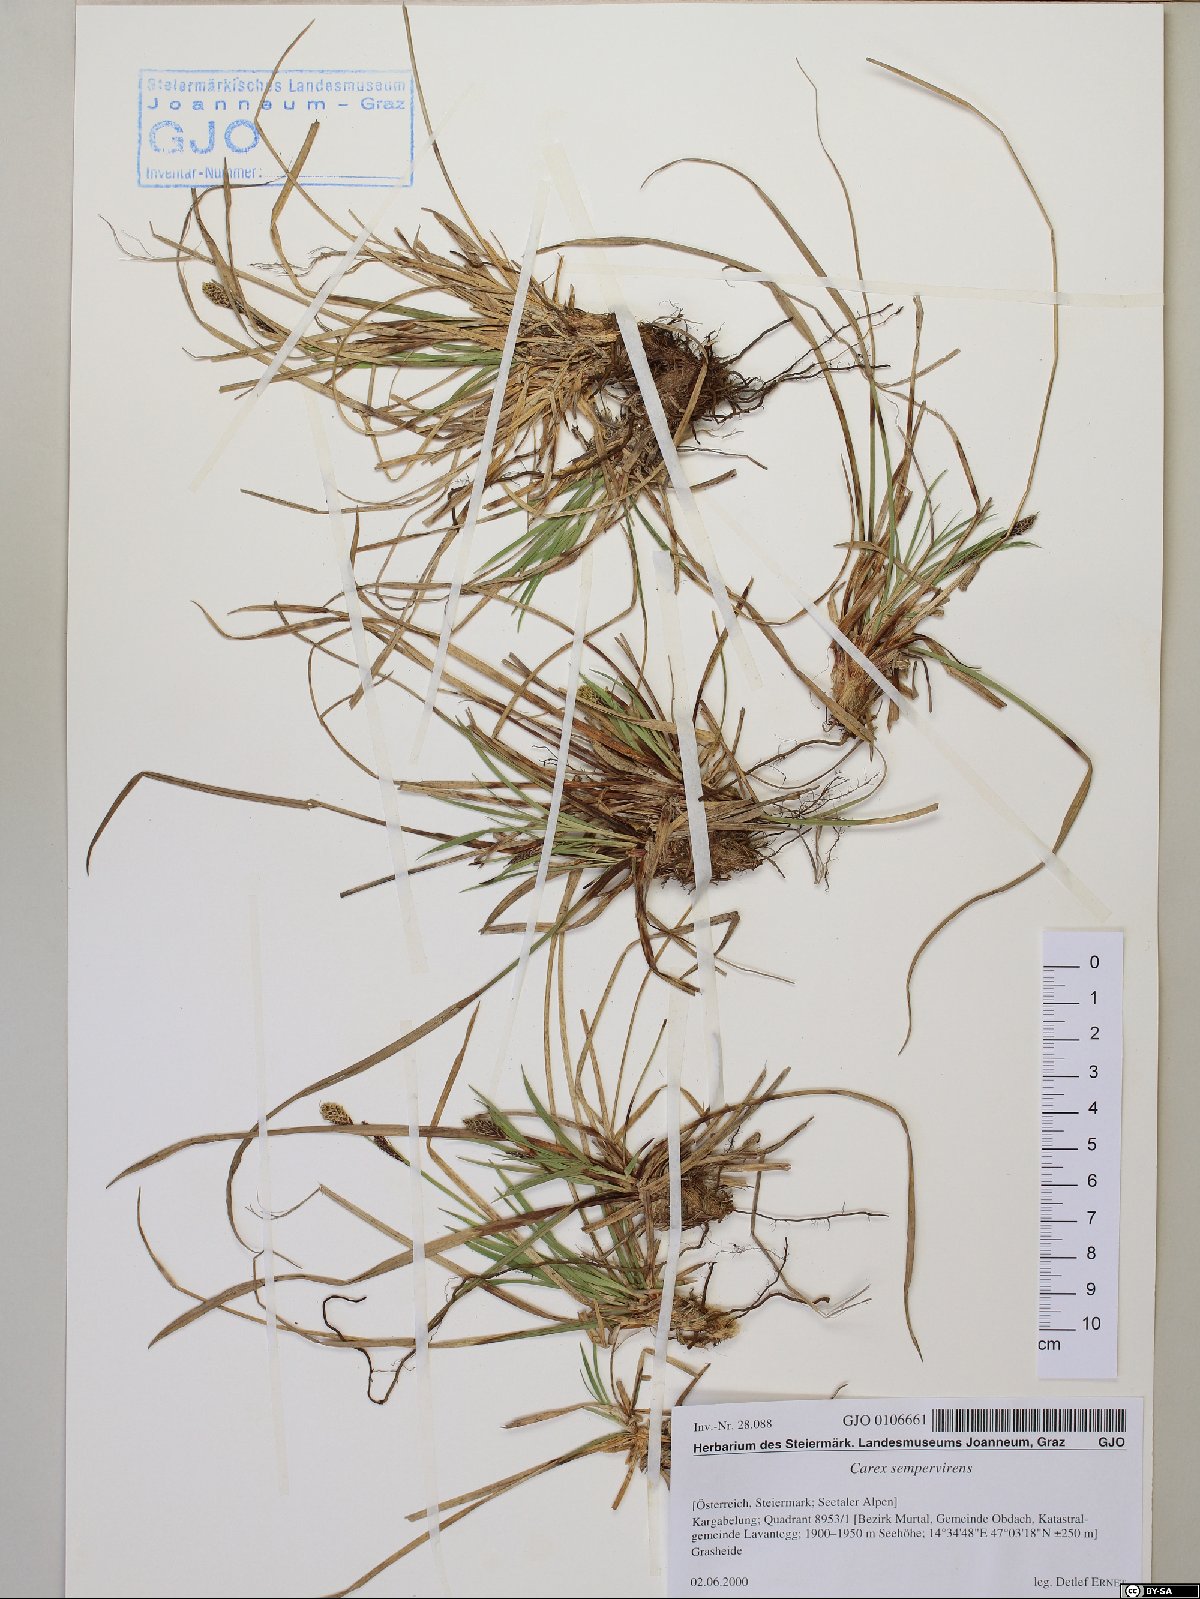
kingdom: Plantae
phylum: Tracheophyta
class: Liliopsida
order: Poales
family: Cyperaceae
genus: Carex
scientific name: Carex sempervirens
